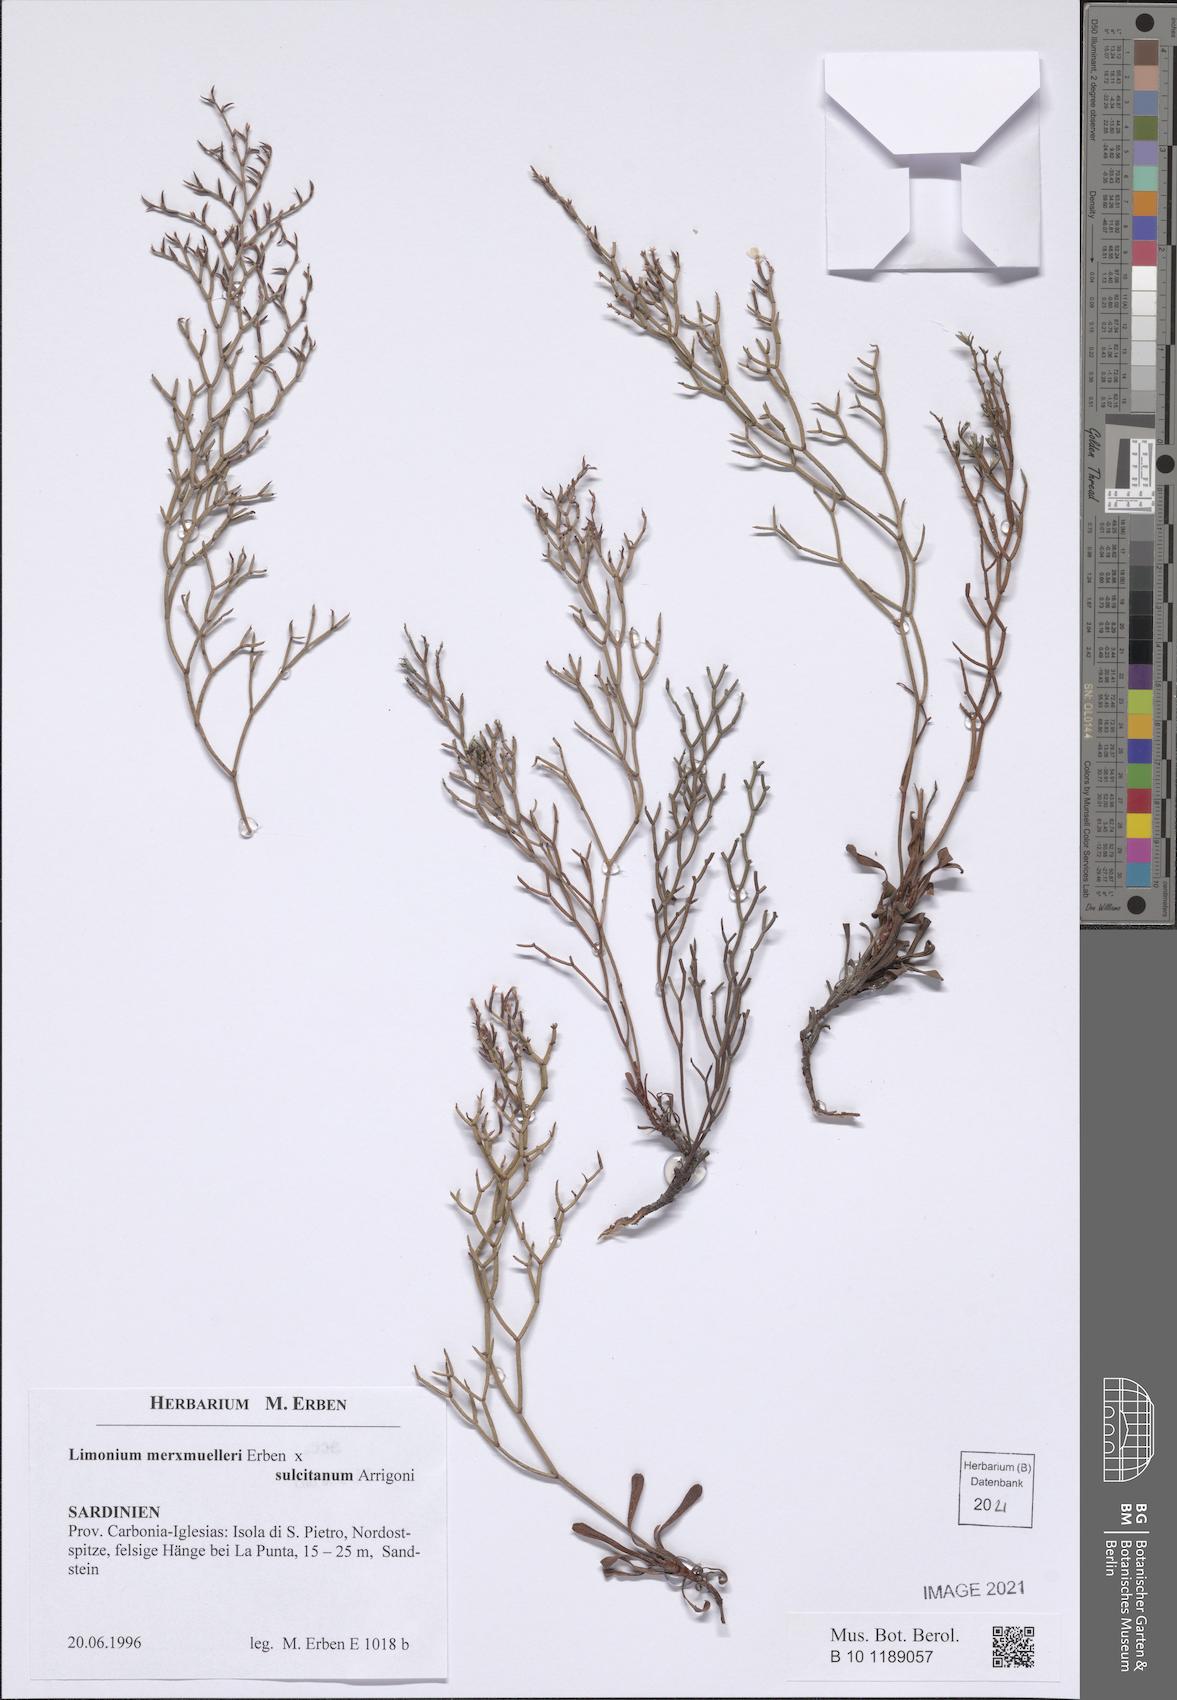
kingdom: Plantae
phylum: Tracheophyta
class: Magnoliopsida
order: Caryophyllales
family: Plumbaginaceae
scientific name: Plumbaginaceae
